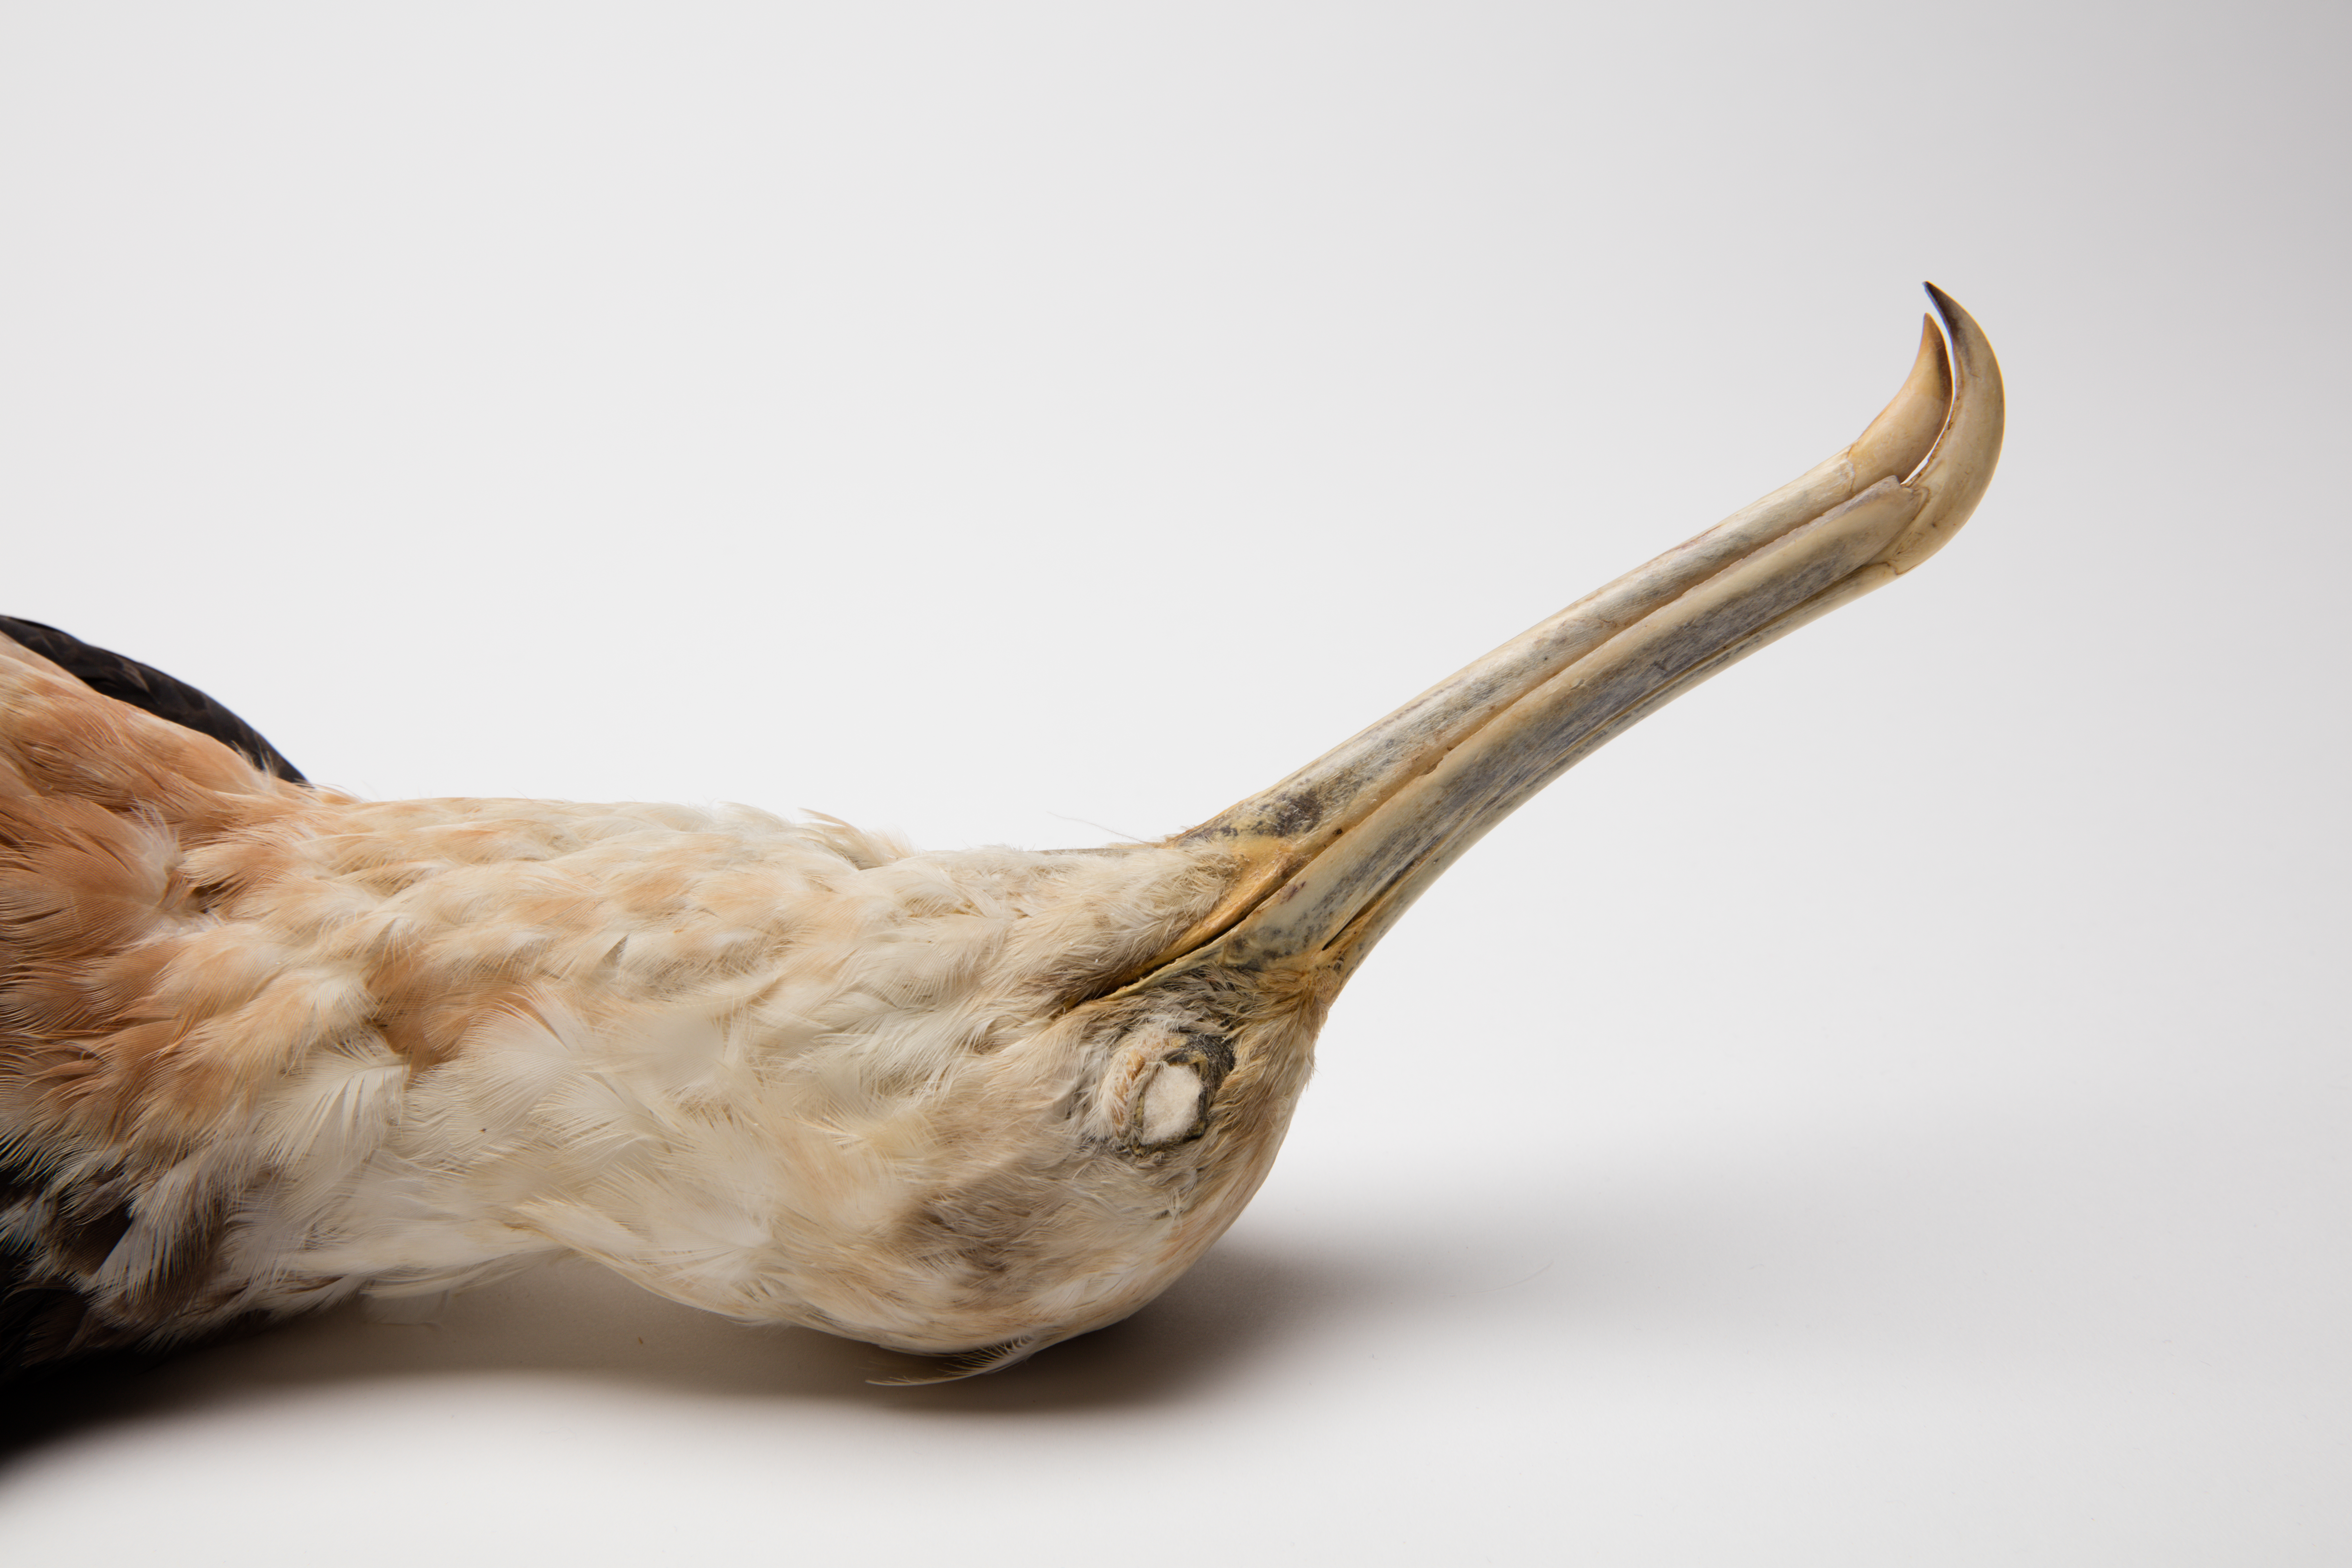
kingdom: Animalia
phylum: Chordata
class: Aves
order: Suliformes
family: Fregatidae
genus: Fregata
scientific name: Fregata minor
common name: Great frigatebird
